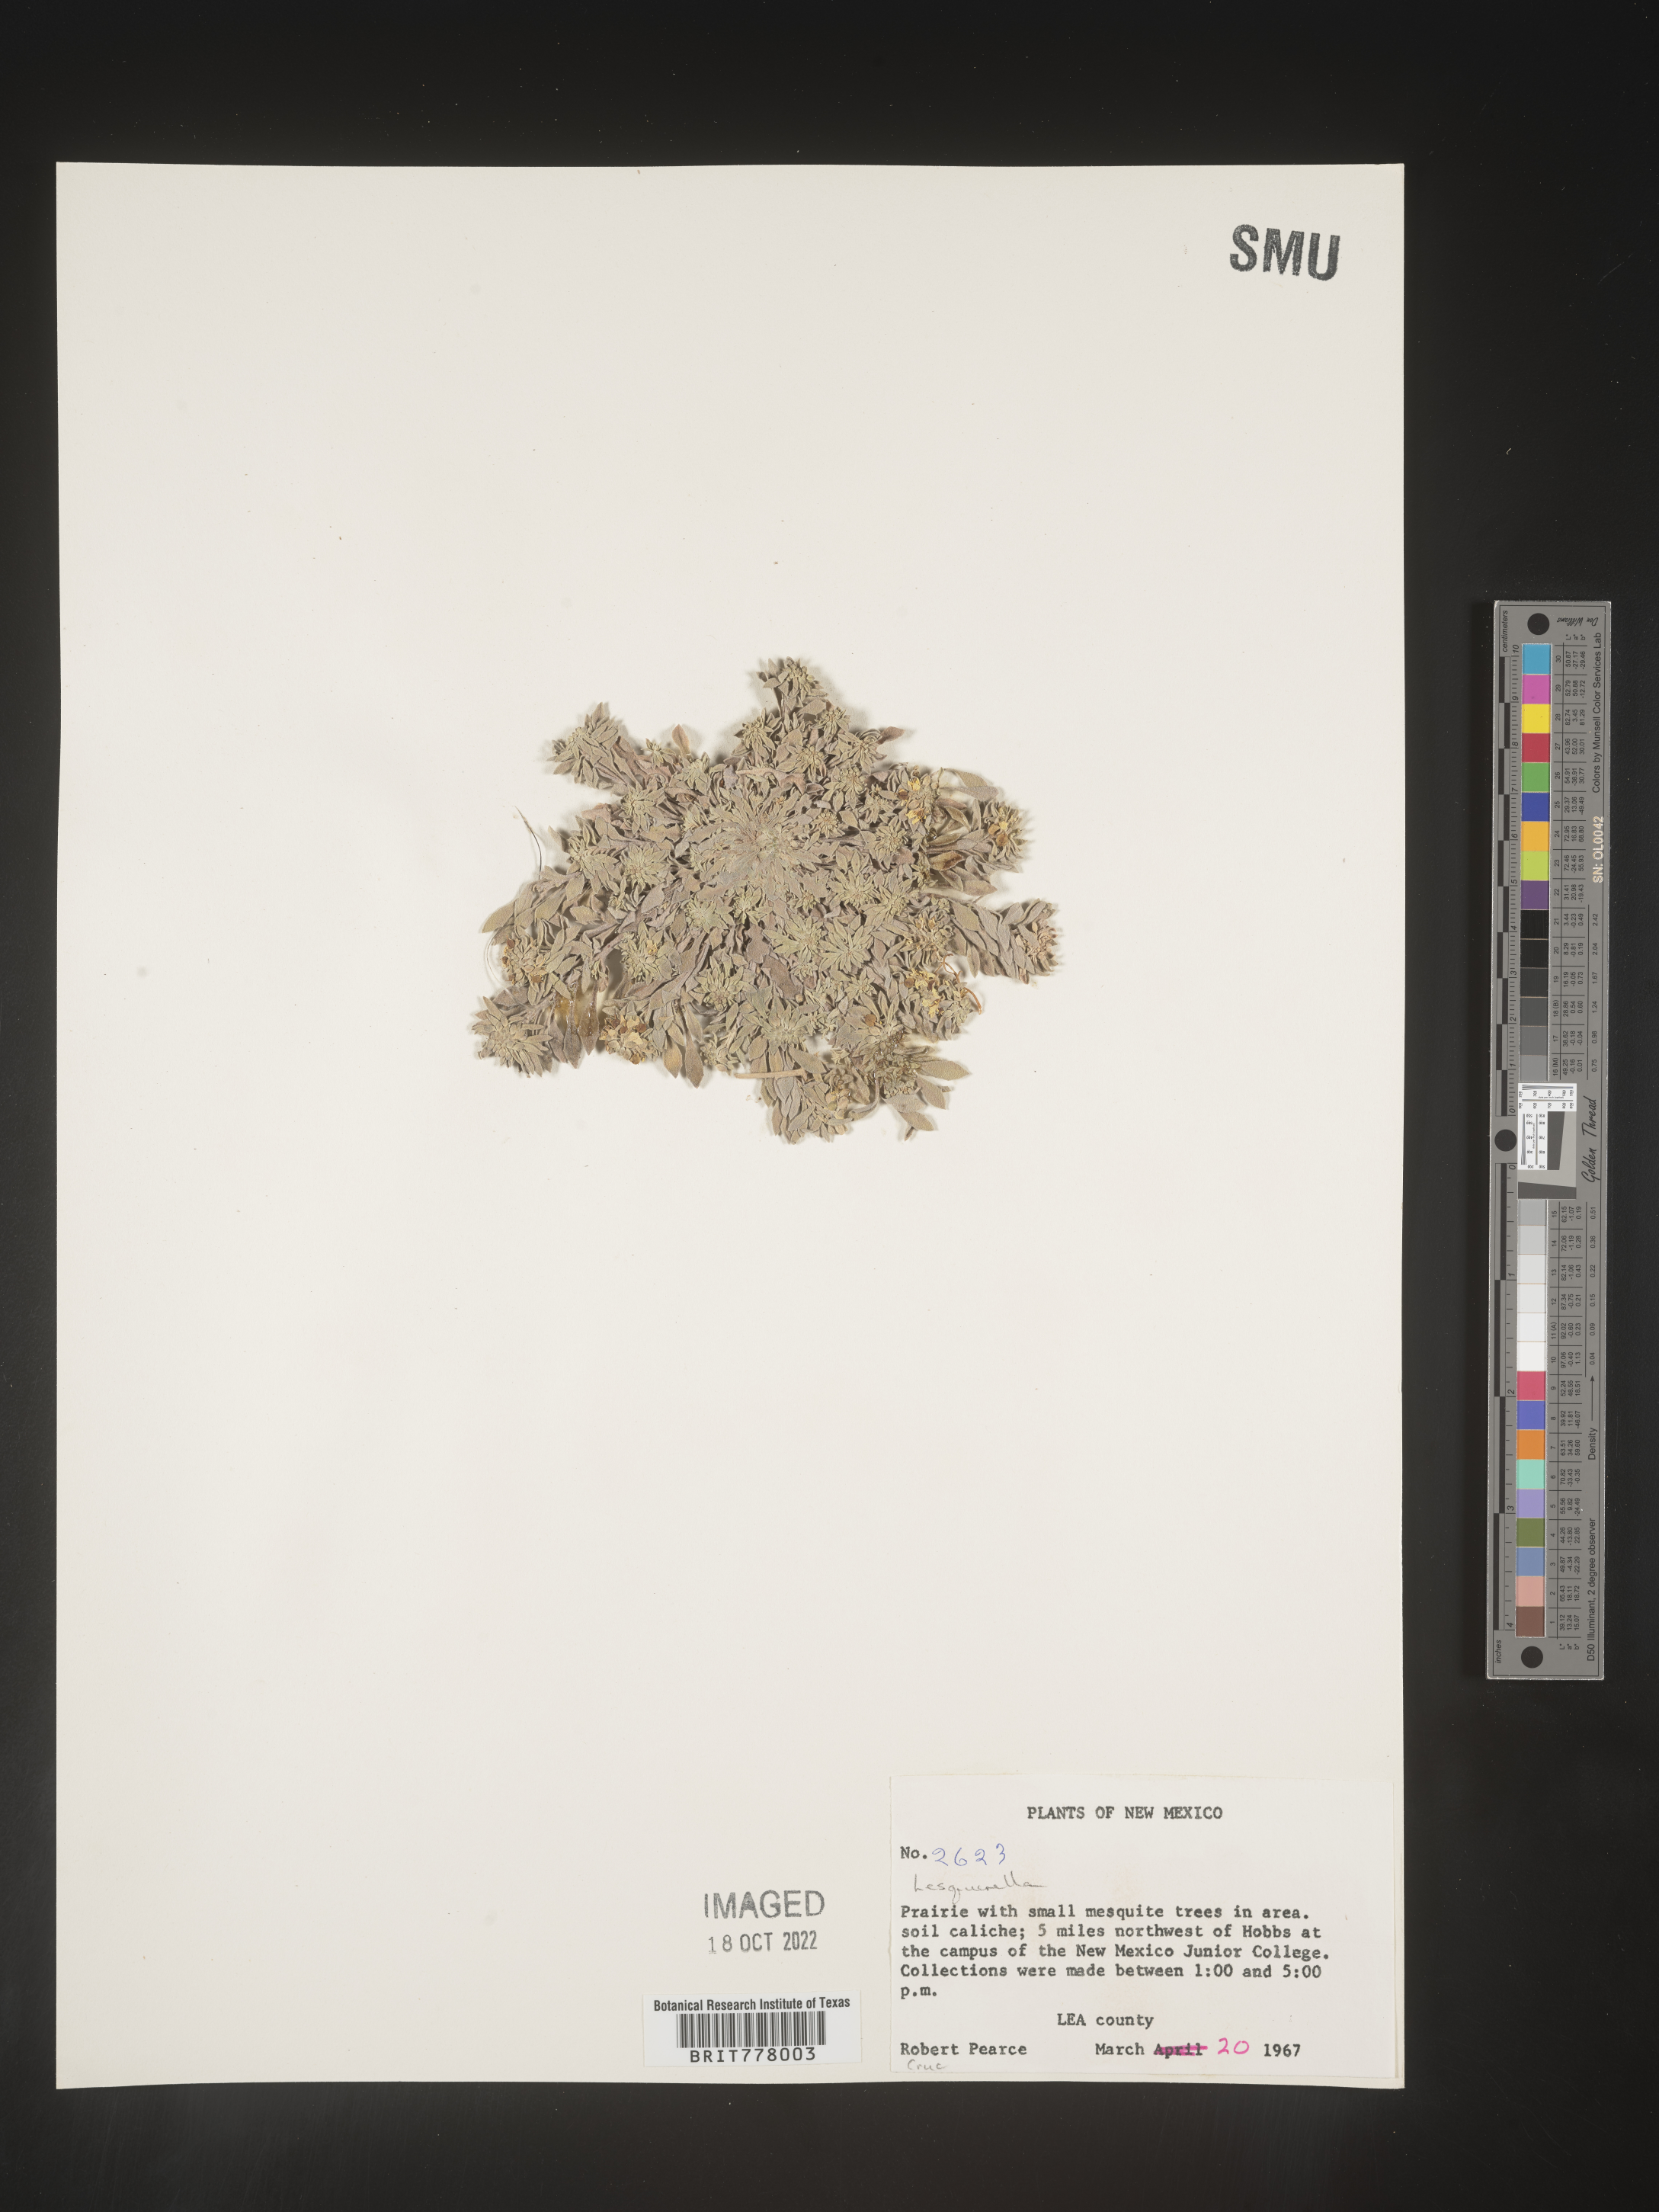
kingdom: Chromista
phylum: Cercozoa
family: Psammonobiotidae
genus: Lesquerella
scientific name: Lesquerella
